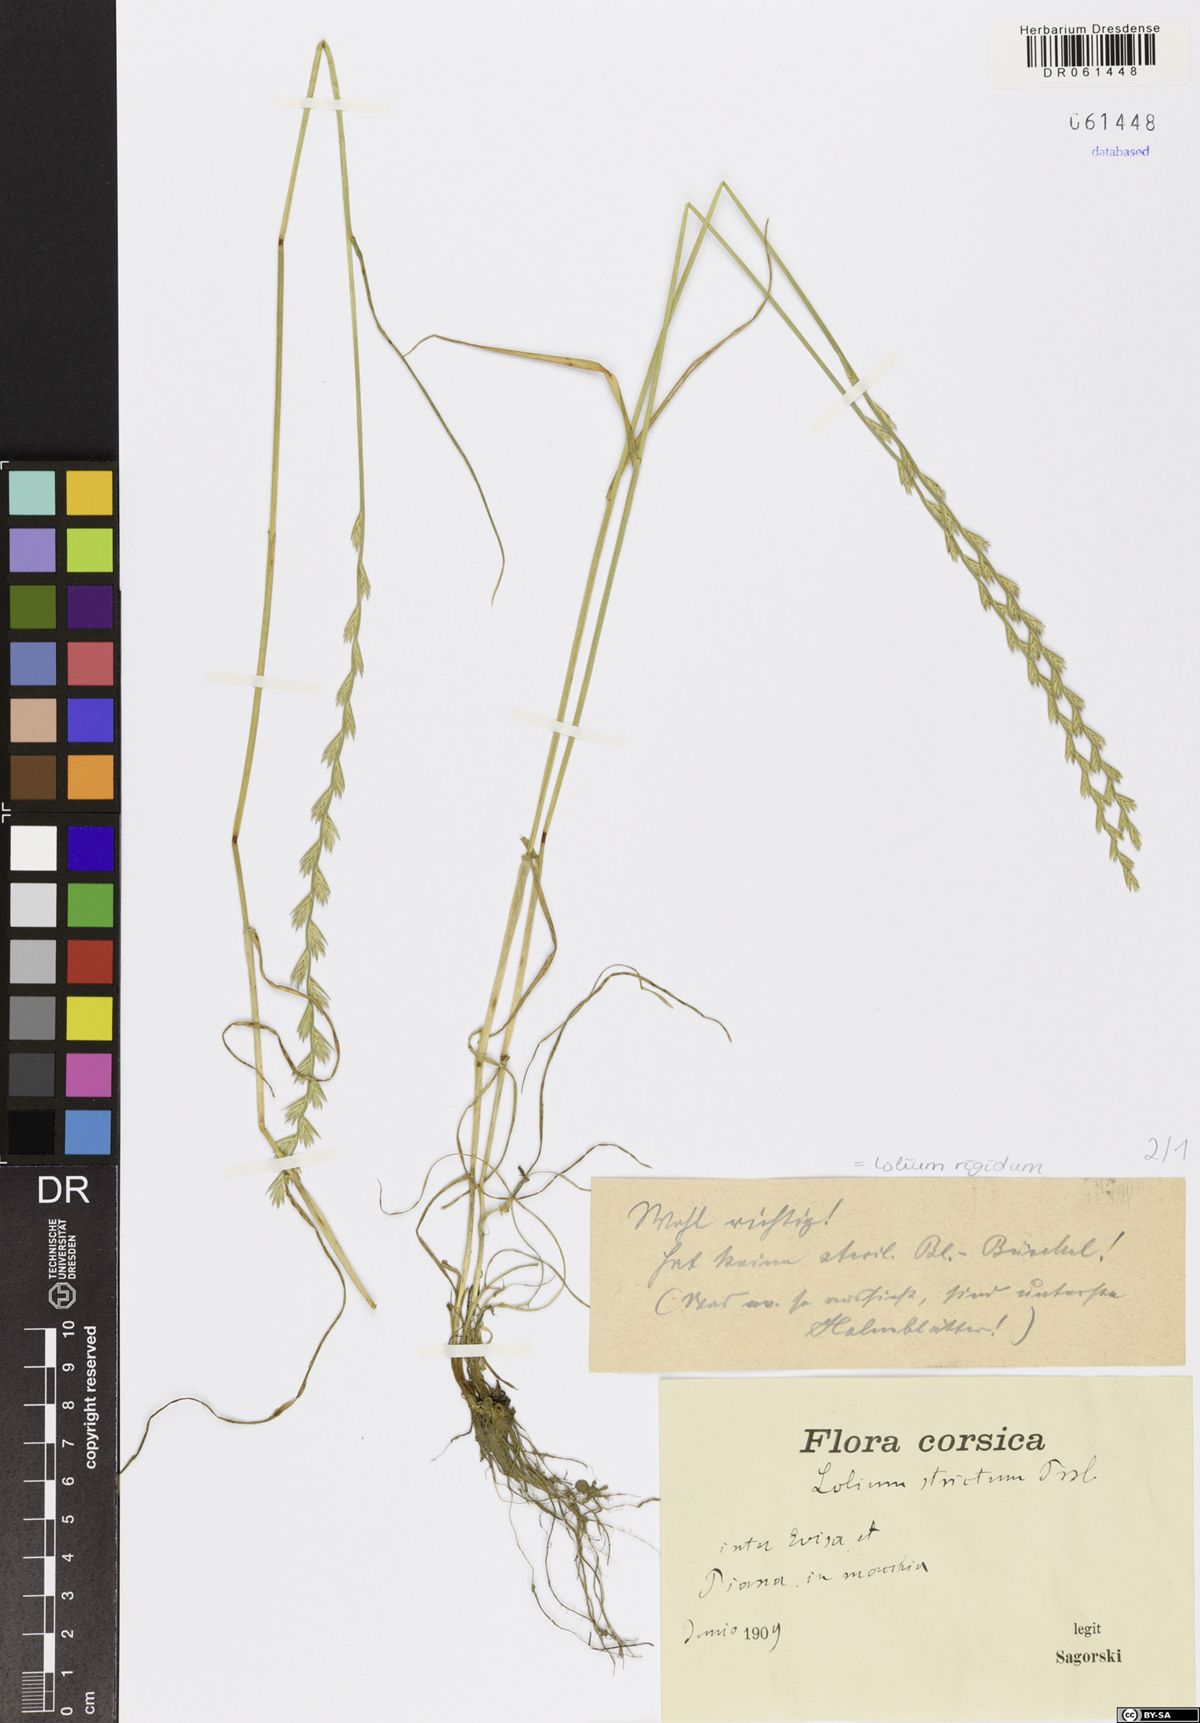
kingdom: Plantae
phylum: Tracheophyta
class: Liliopsida
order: Poales
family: Poaceae
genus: Lolium
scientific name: Lolium rigidum
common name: Wimmera ryegrass
